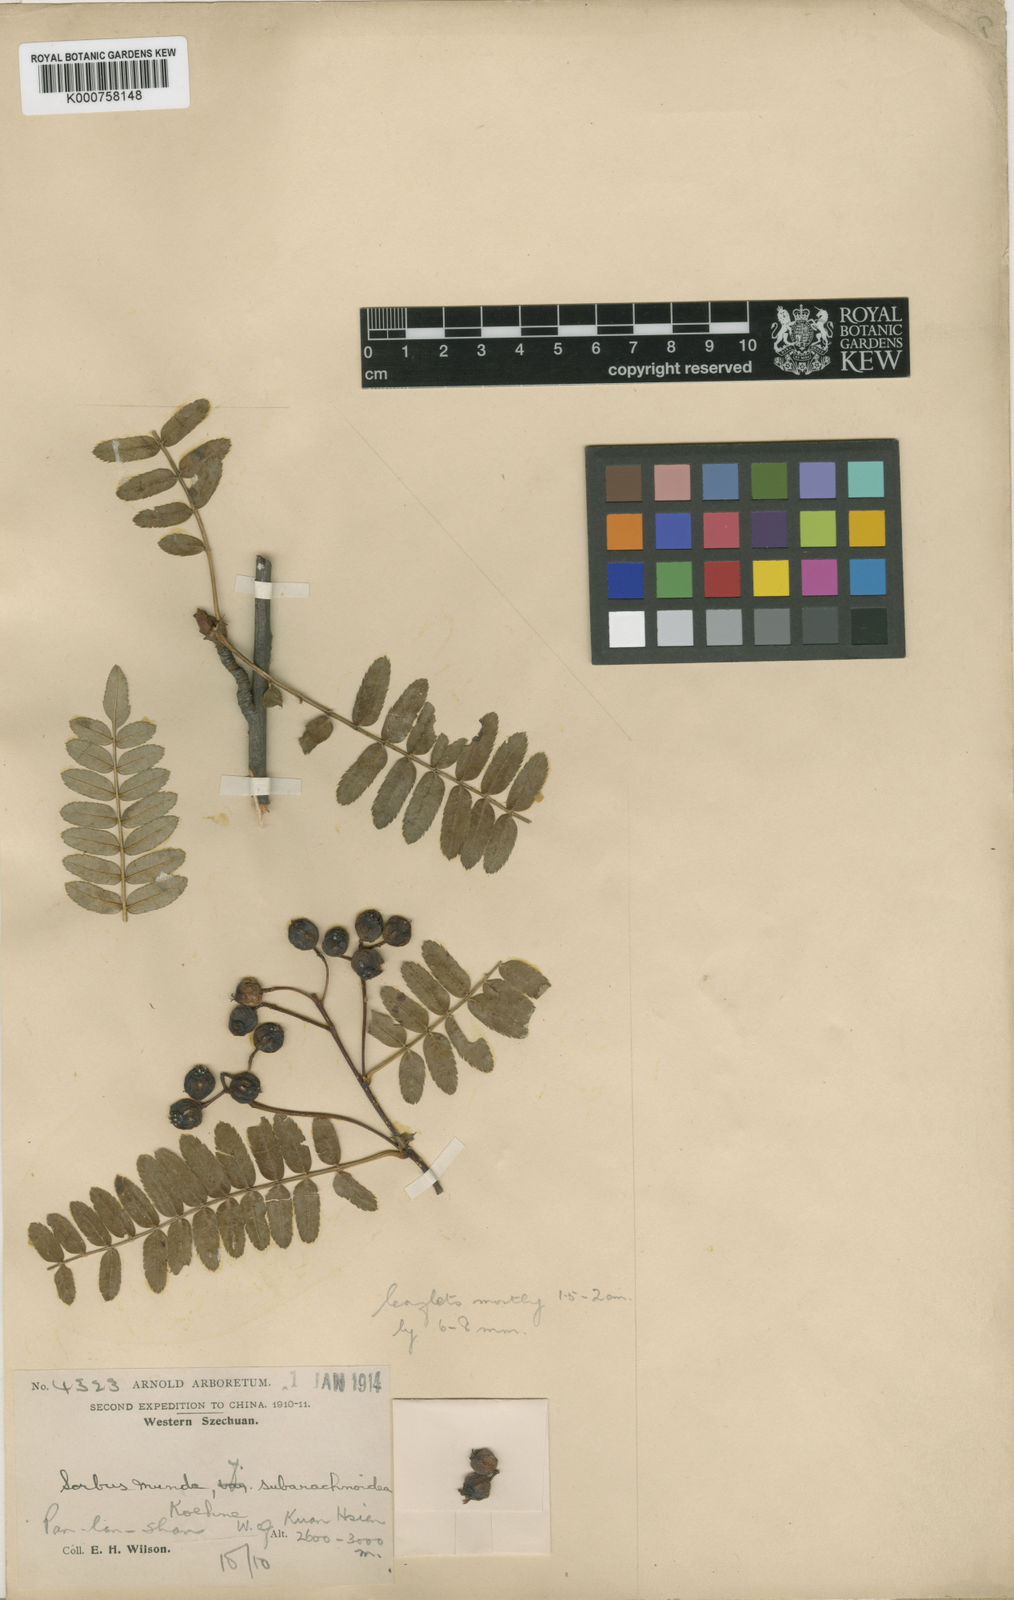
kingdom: Plantae
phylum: Tracheophyta
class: Magnoliopsida
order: Rosales
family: Rosaceae
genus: Sorbus
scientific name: Sorbus prattii
